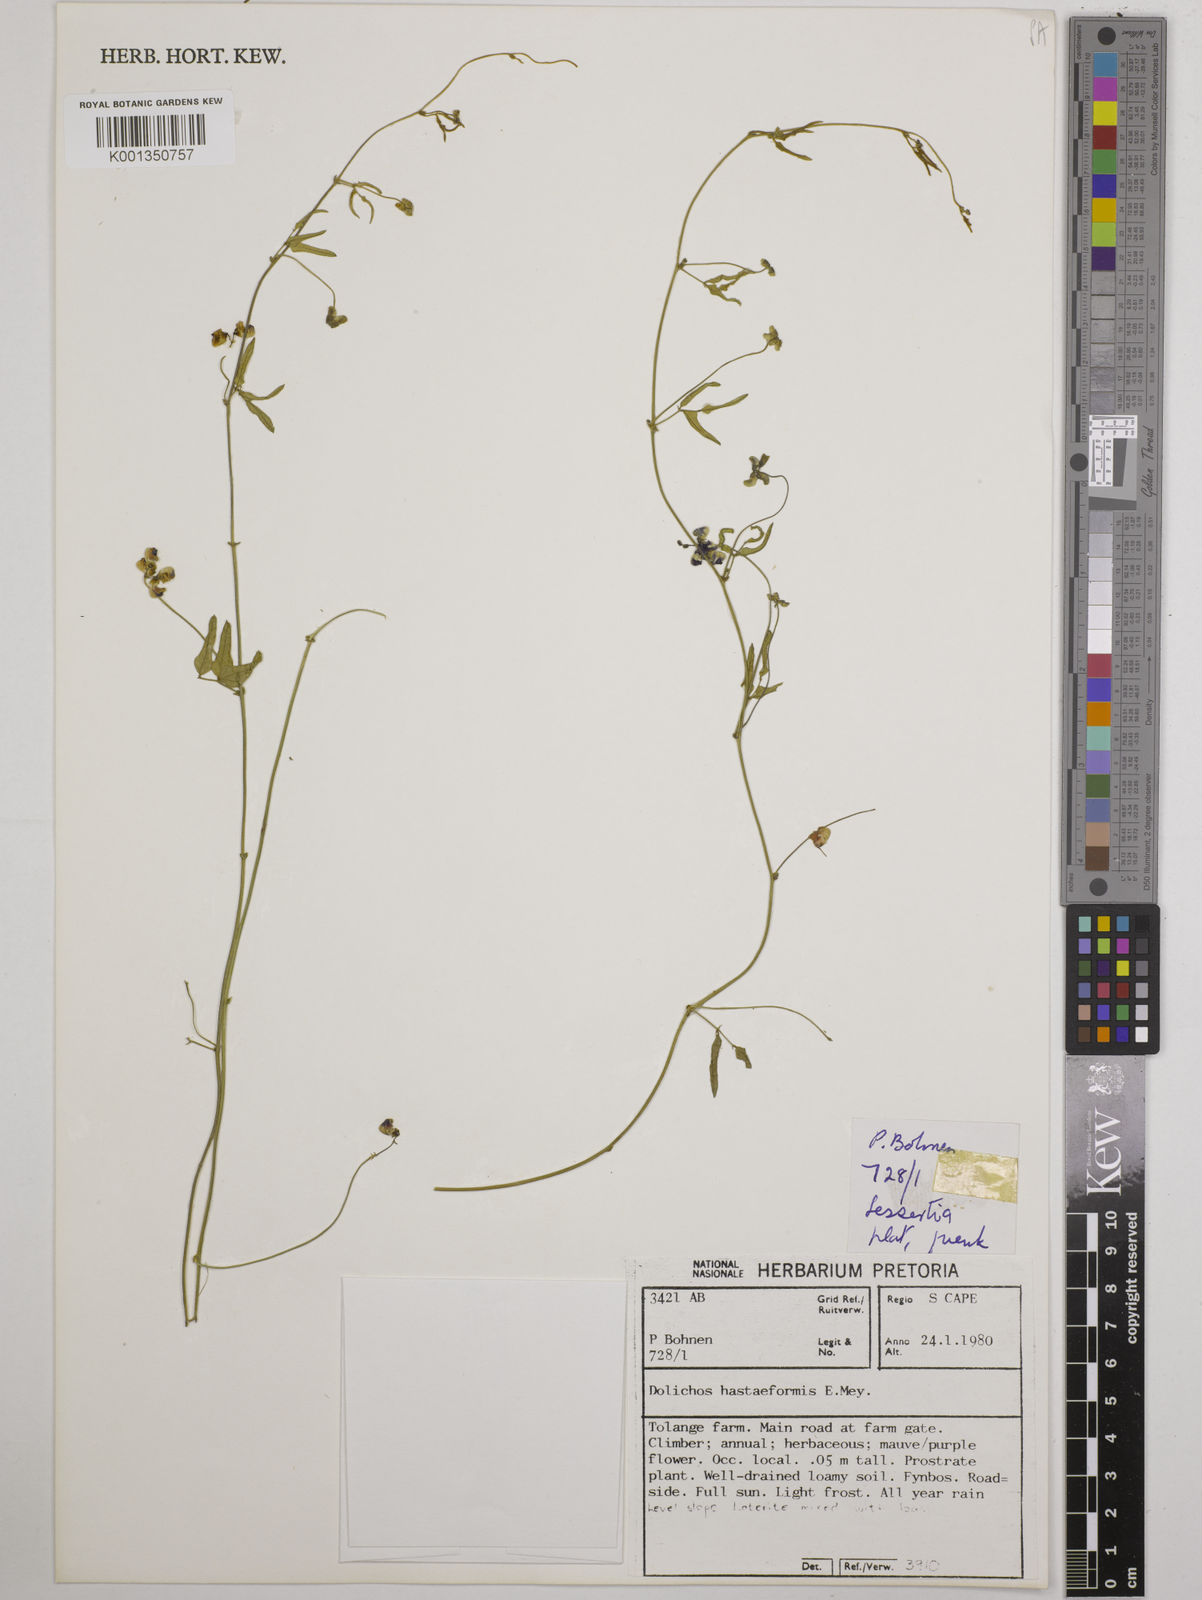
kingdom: Plantae
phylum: Tracheophyta
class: Magnoliopsida
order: Fabales
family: Fabaceae
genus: Dolichos
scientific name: Dolichos
